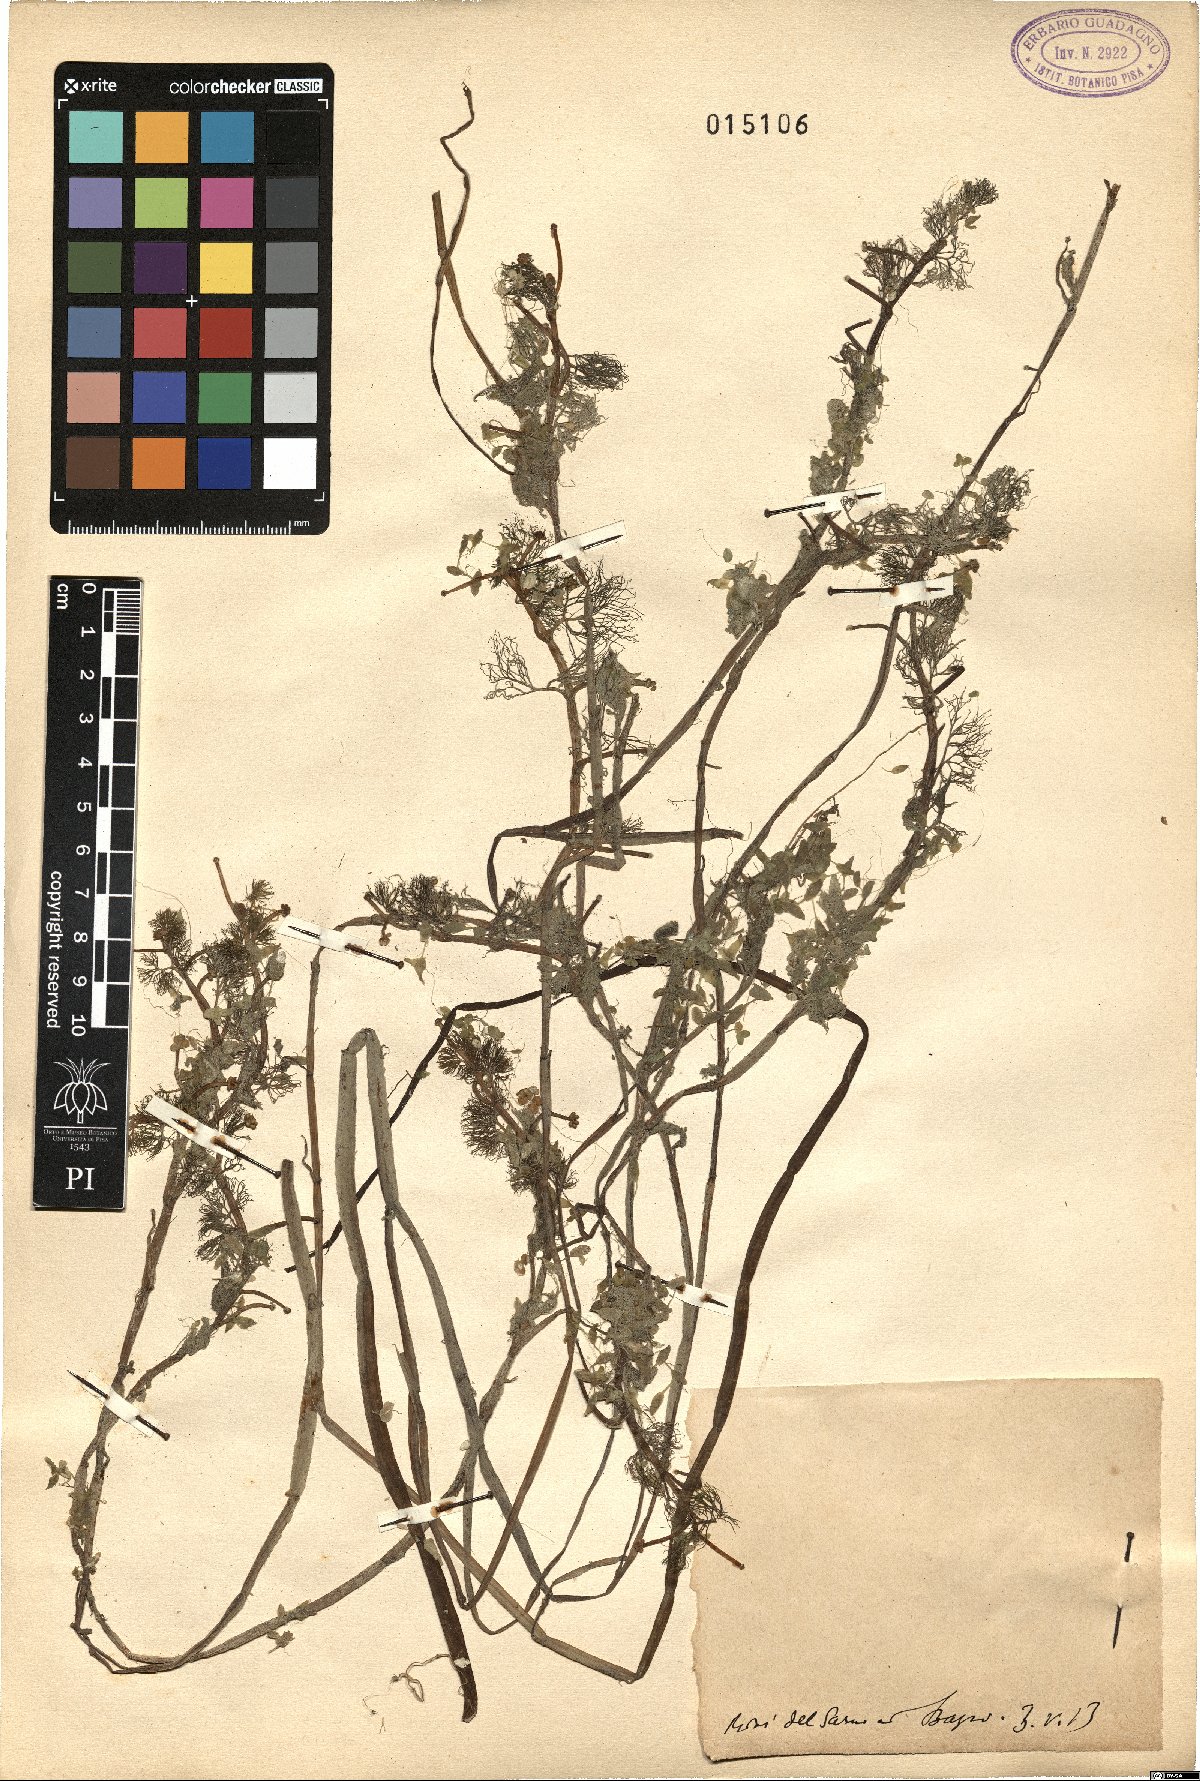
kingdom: Plantae
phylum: Tracheophyta
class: Magnoliopsida
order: Ranunculales
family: Ranunculaceae
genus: Ranunculus
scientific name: Ranunculus
